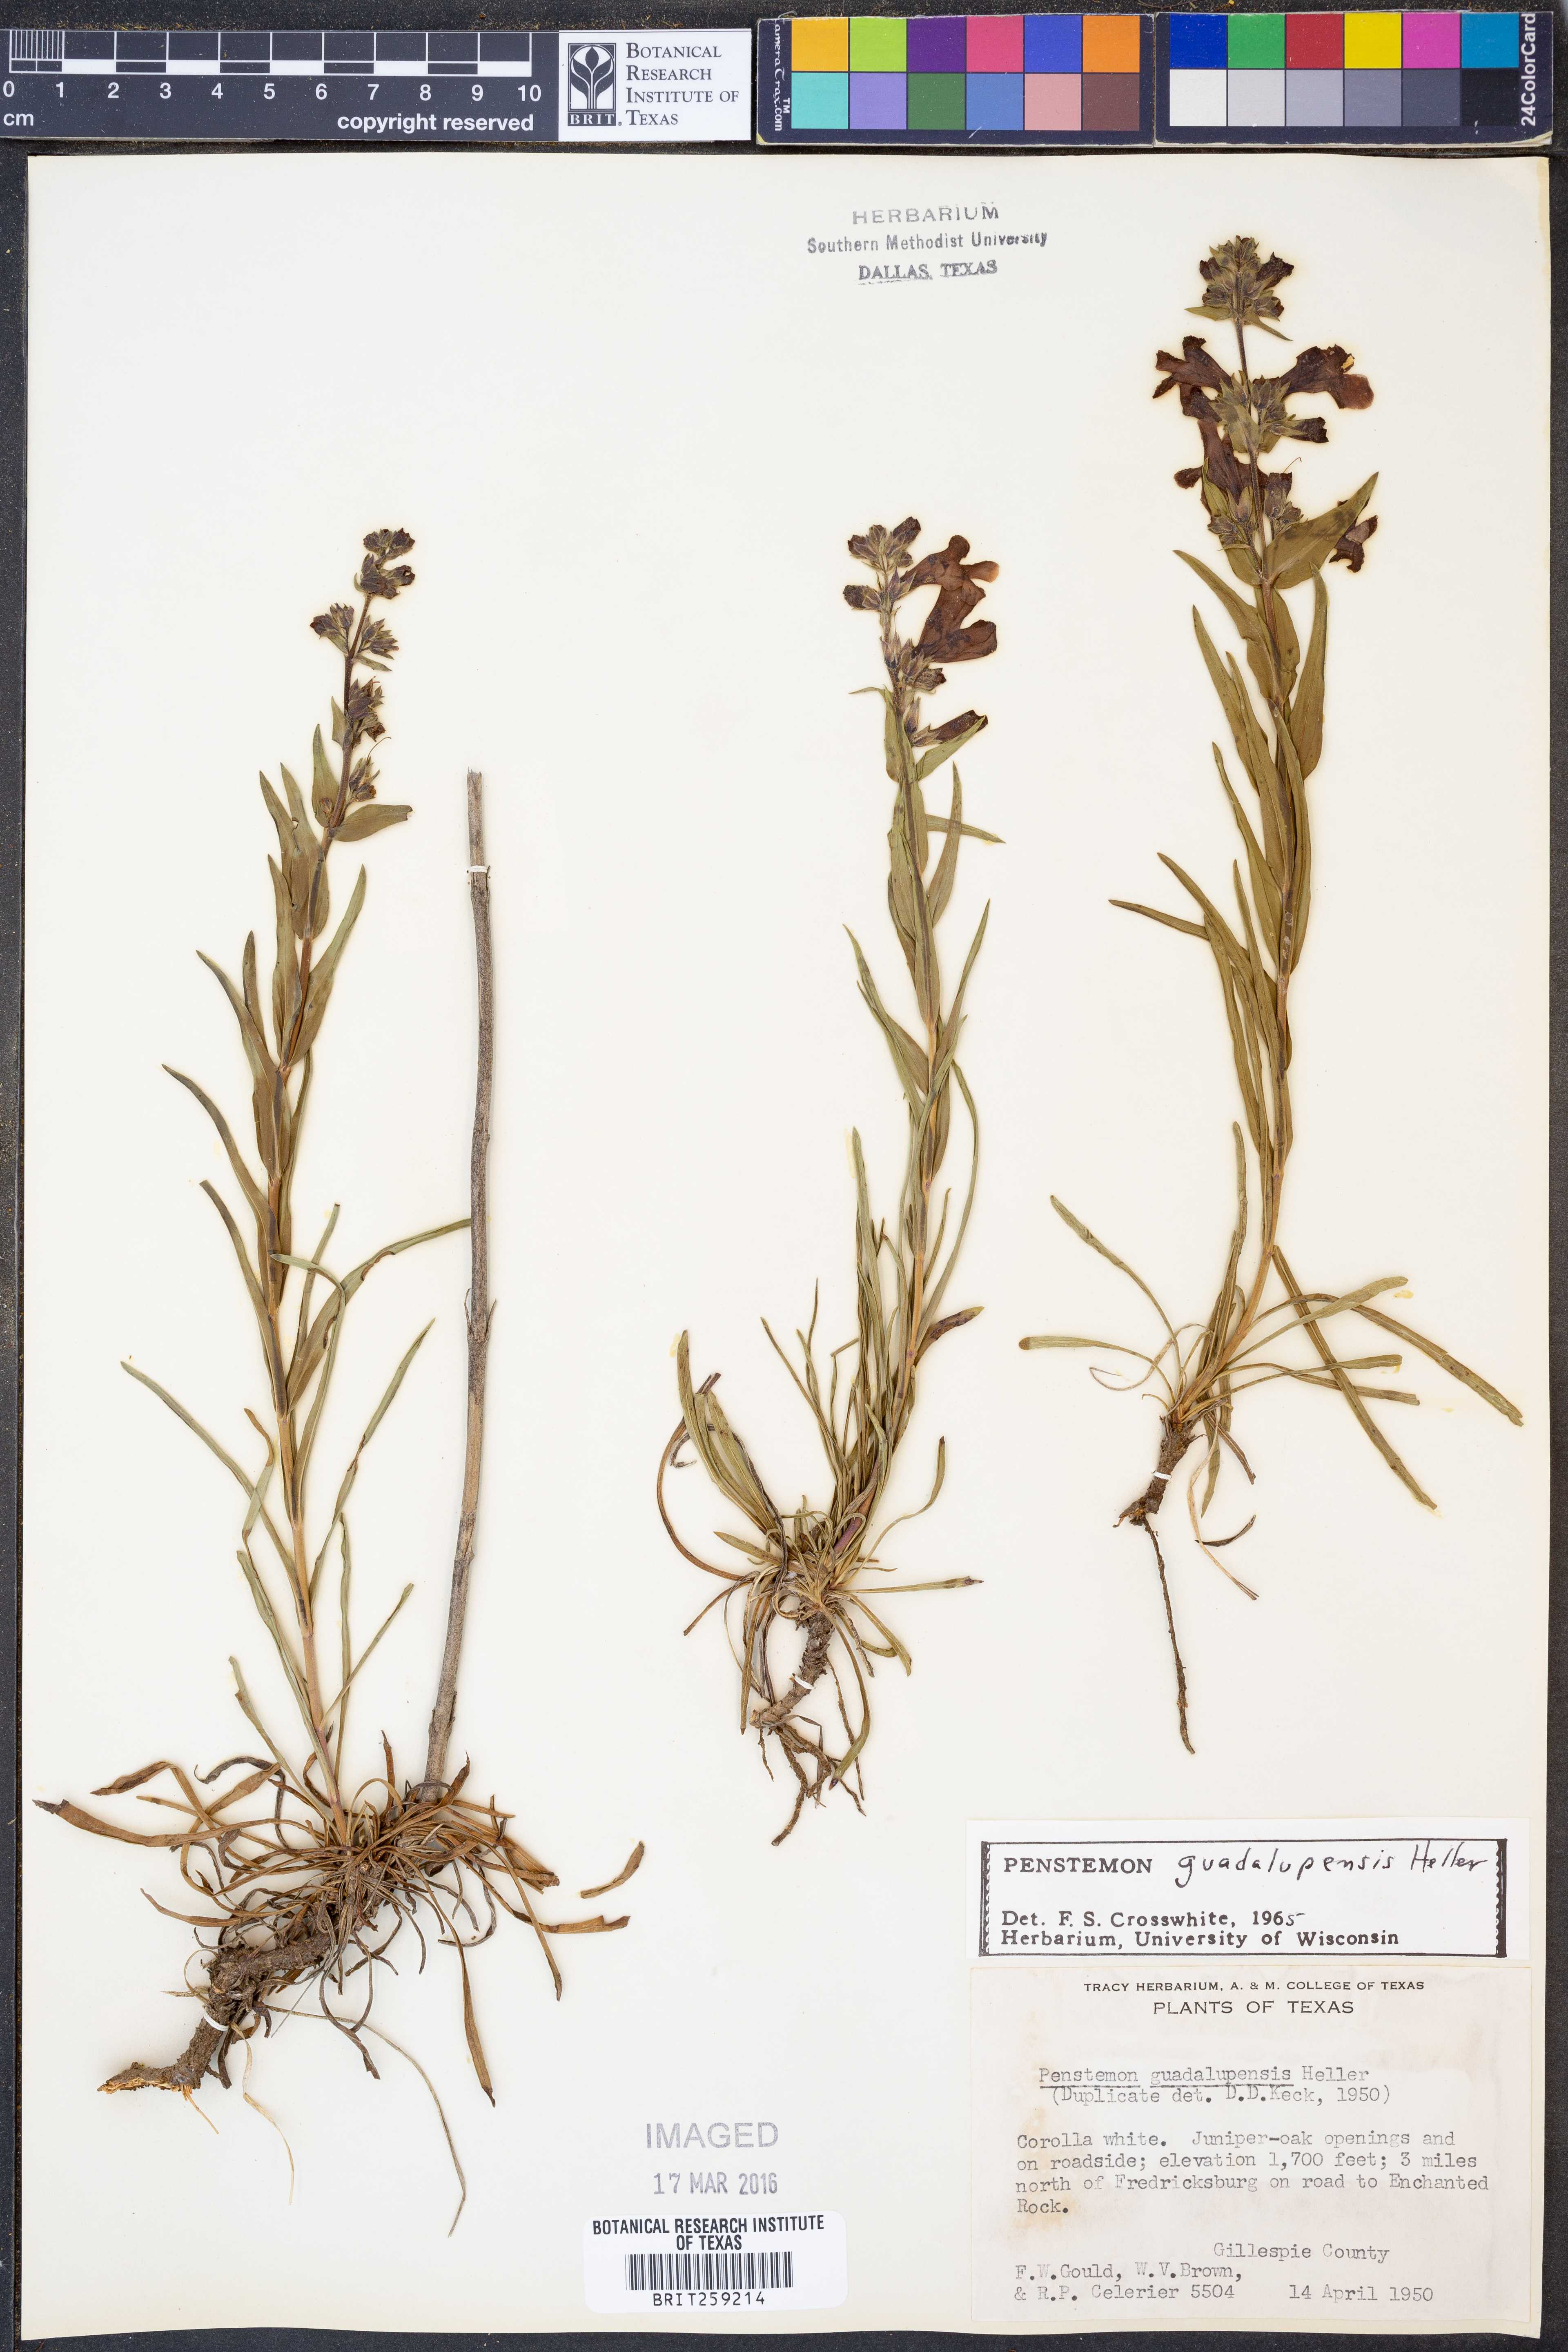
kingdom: Plantae
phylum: Tracheophyta
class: Magnoliopsida
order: Lamiales
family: Plantaginaceae
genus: Penstemon
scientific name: Penstemon guadalupensis
